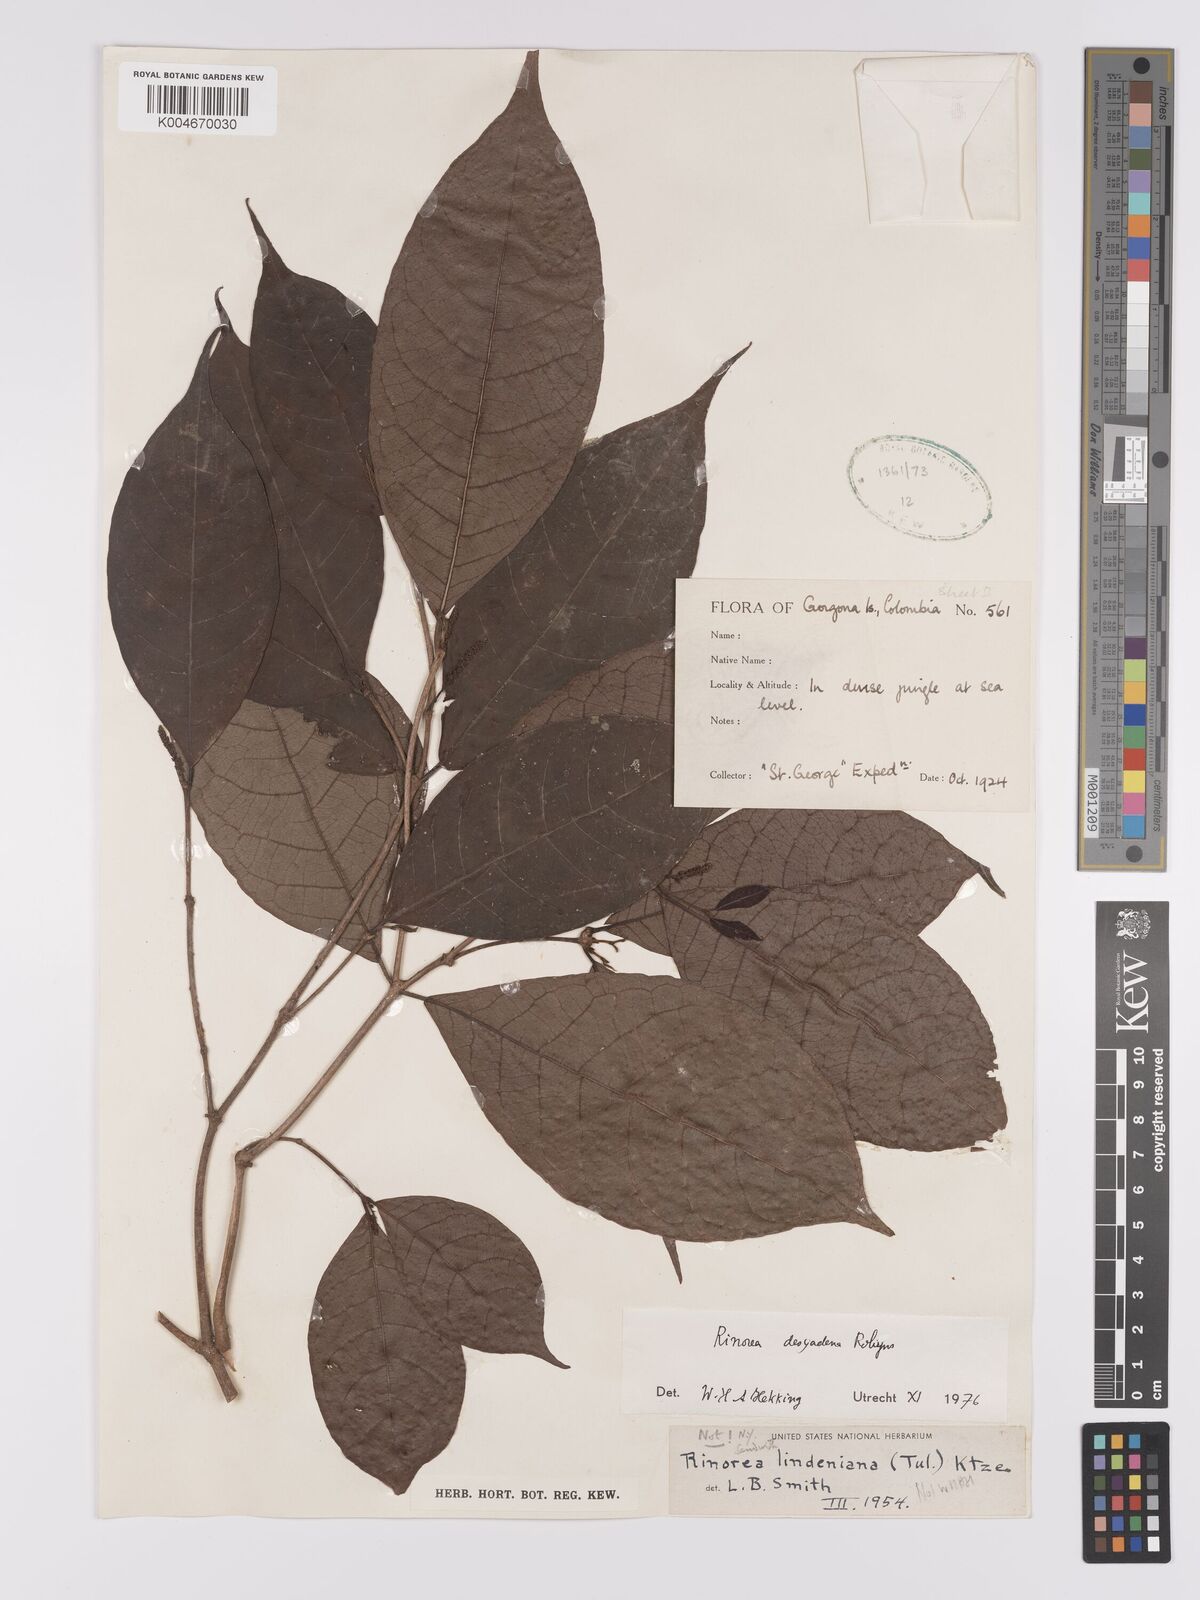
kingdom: Plantae
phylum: Tracheophyta
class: Magnoliopsida
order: Malpighiales
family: Violaceae
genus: Rinorea
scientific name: Rinorea dasyadena
